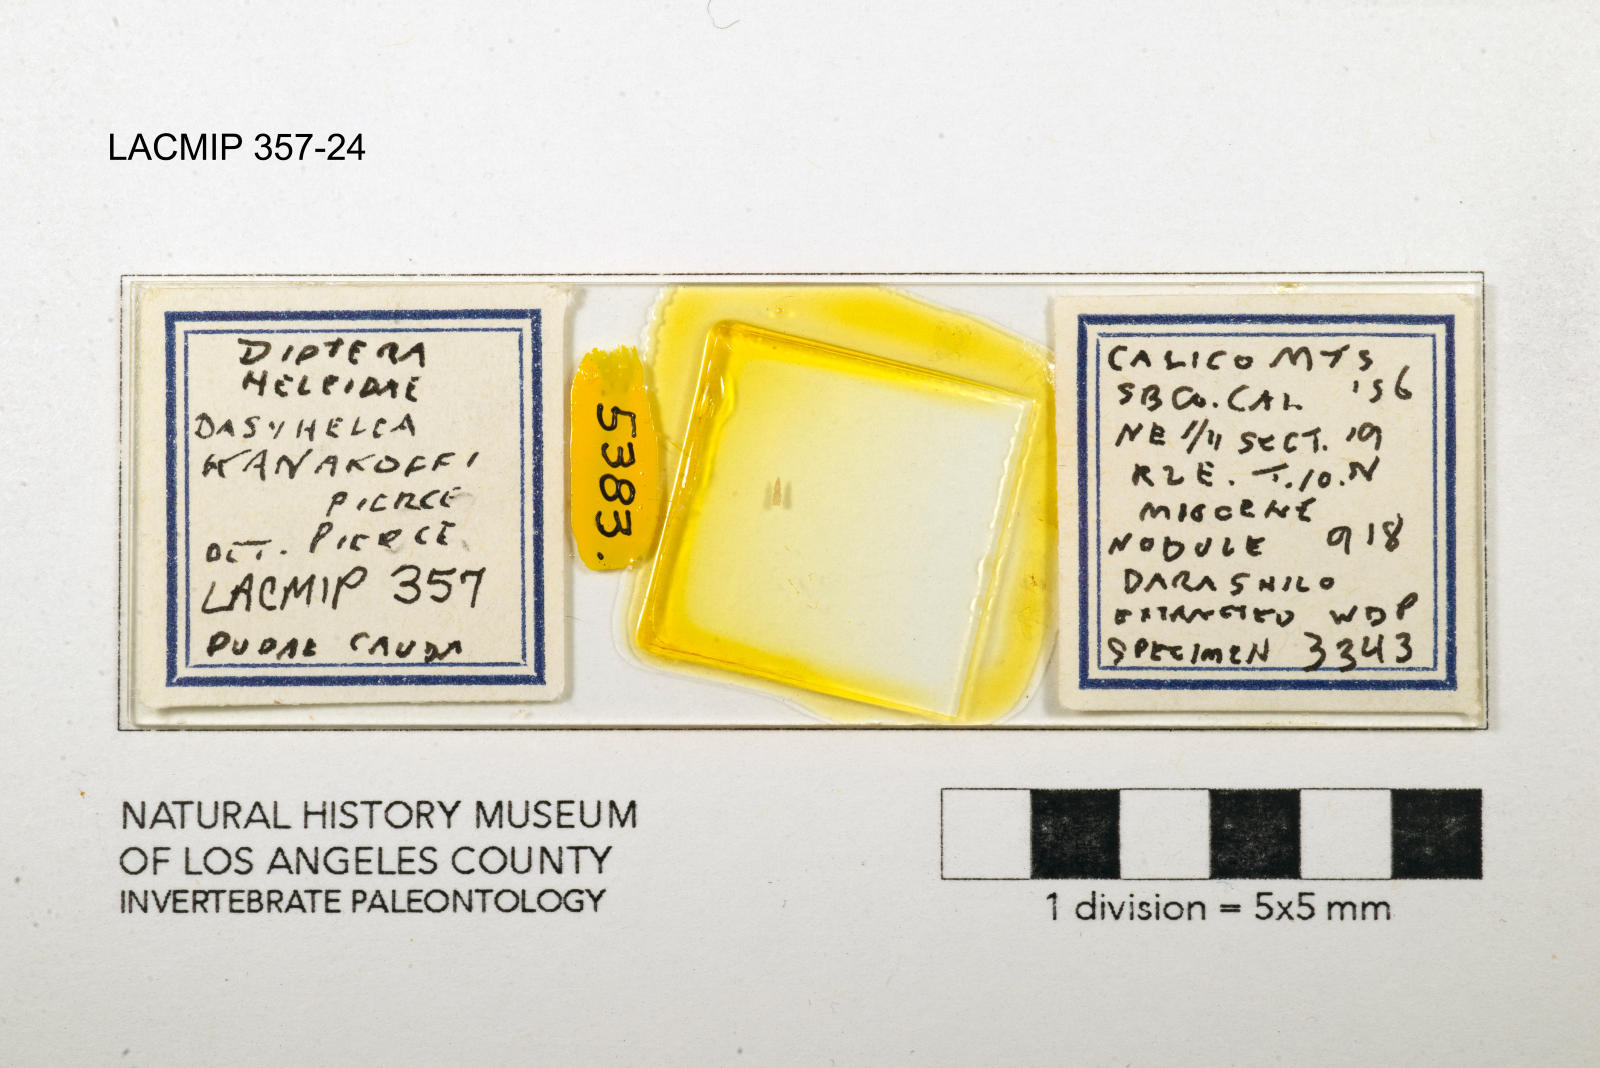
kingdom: Animalia
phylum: Arthropoda
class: Insecta
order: Diptera
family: Ceratopogonidae
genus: Dasyhelea
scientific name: Dasyhelea kanakoffi
